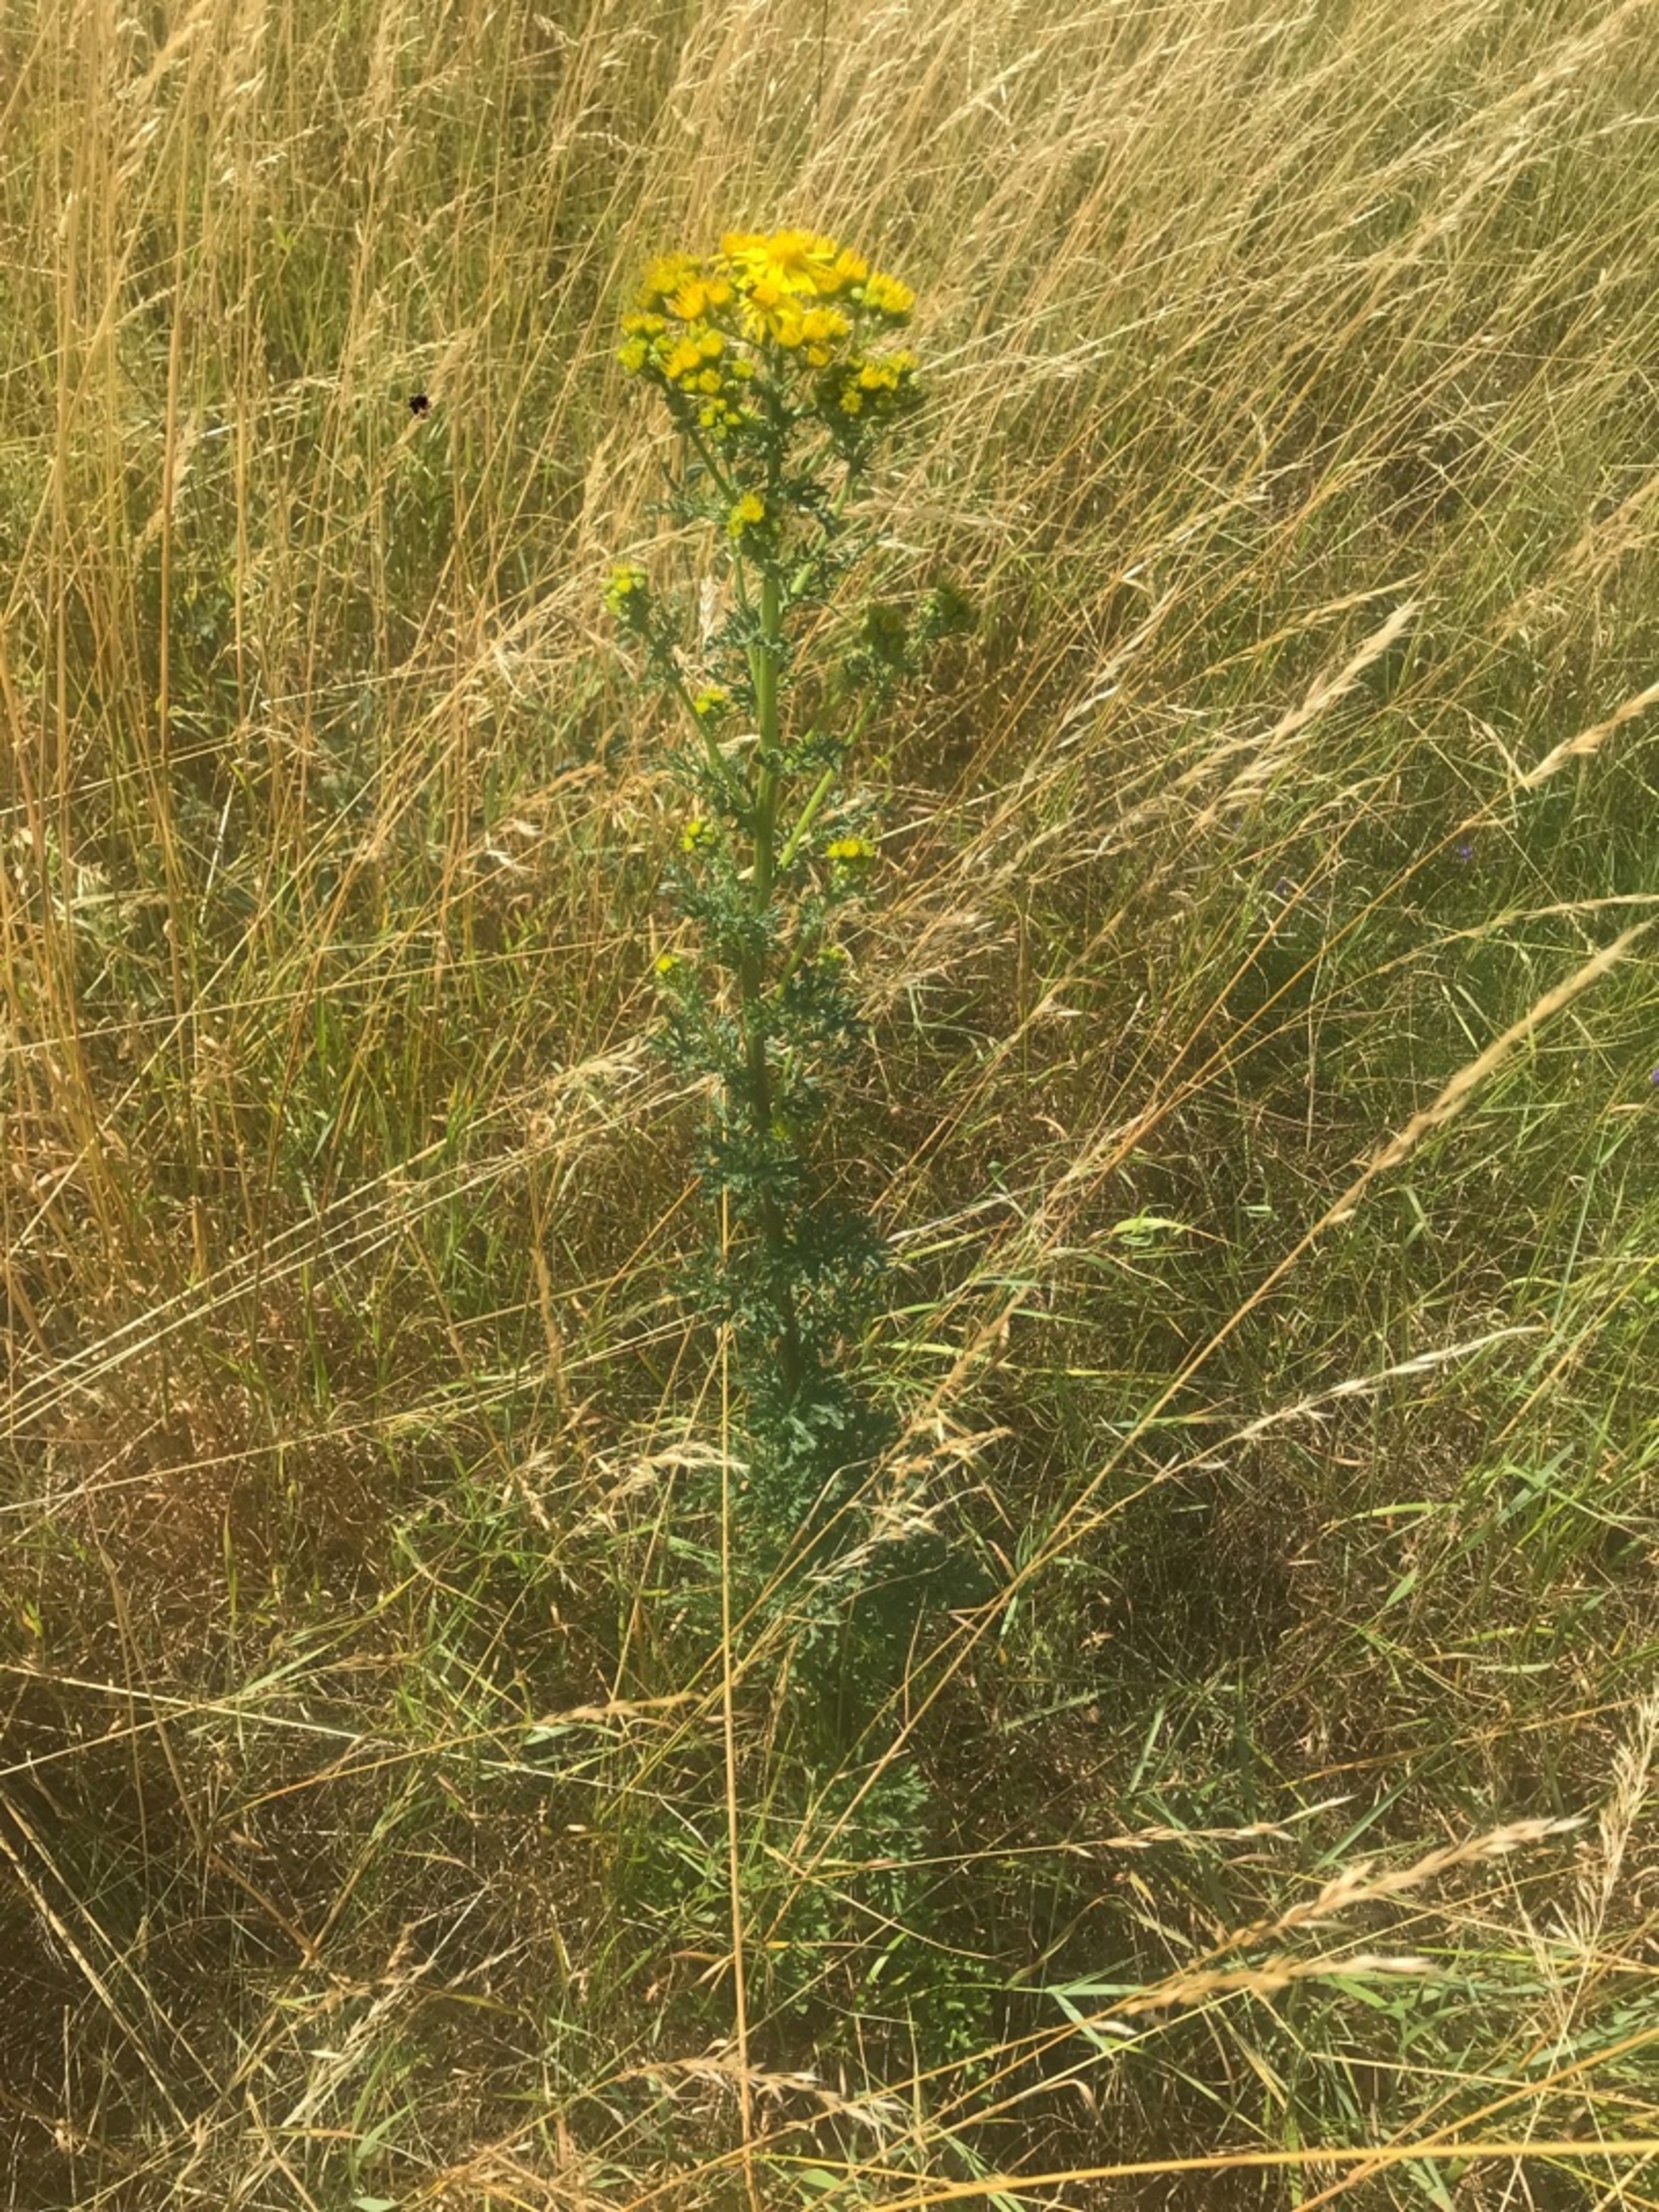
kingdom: Plantae
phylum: Tracheophyta
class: Magnoliopsida
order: Asterales
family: Asteraceae
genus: Jacobaea
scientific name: Jacobaea vulgaris
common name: Eng-brandbæger
